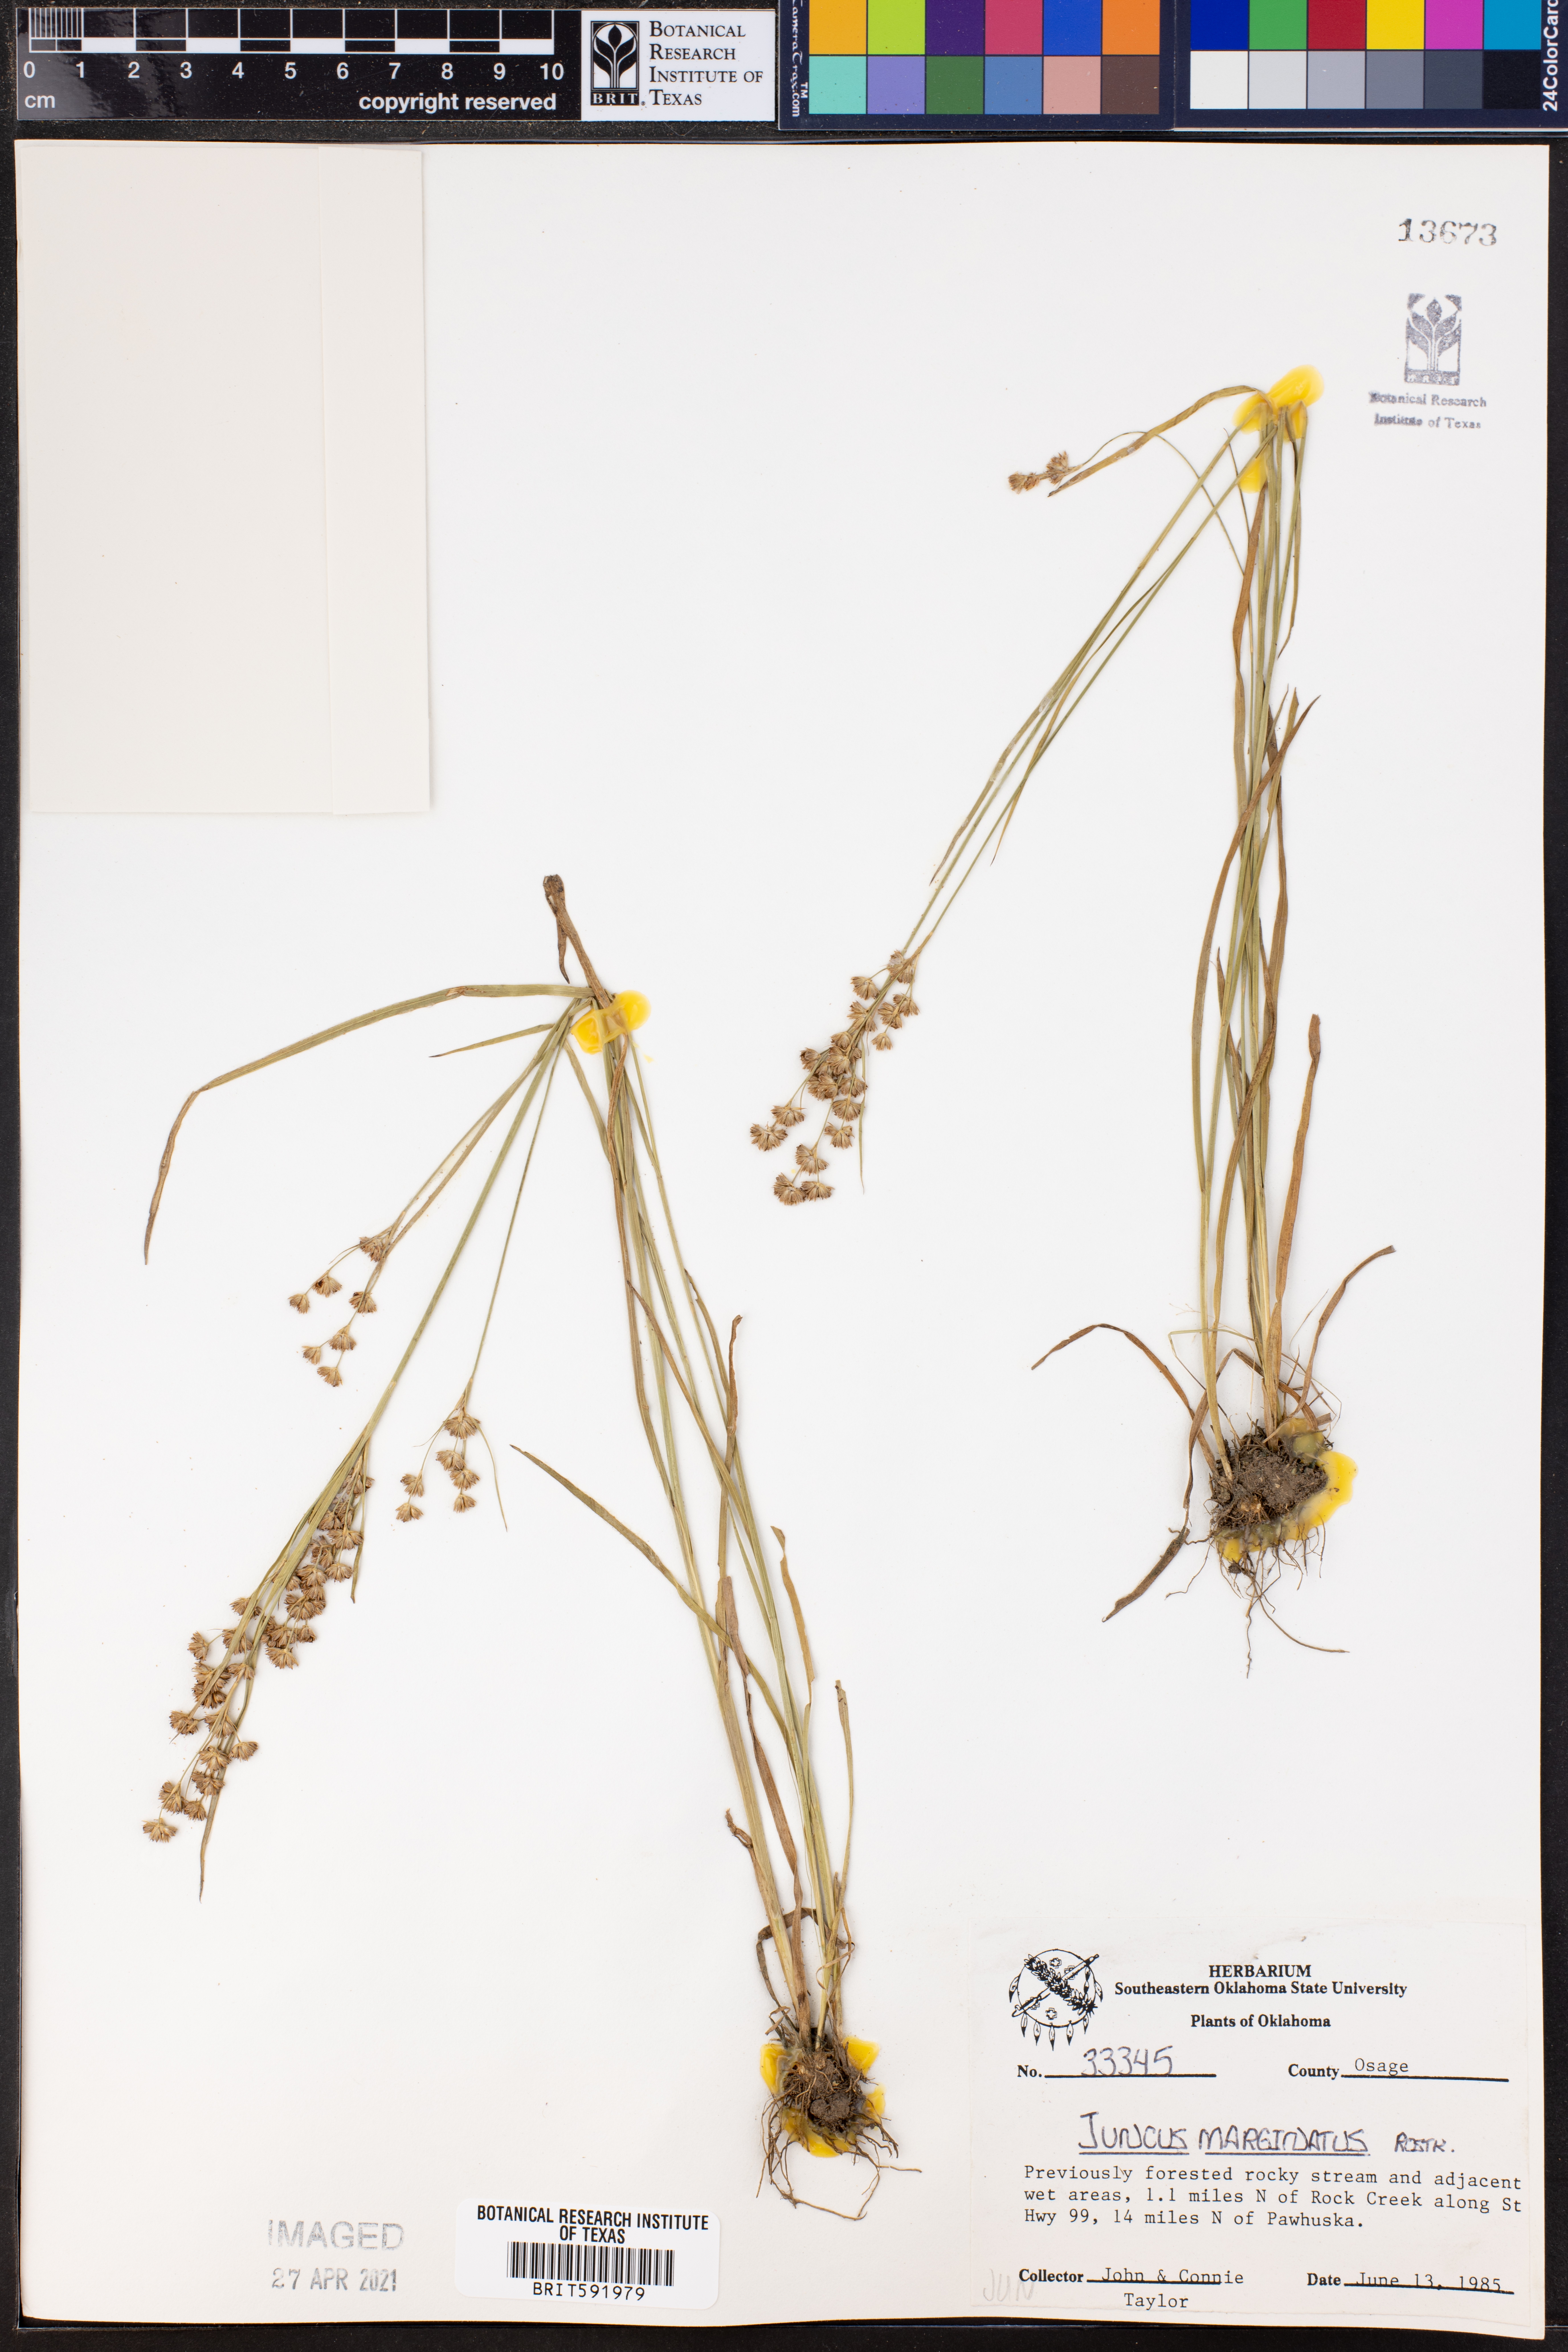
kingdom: Plantae
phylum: Tracheophyta
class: Liliopsida
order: Poales
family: Juncaceae
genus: Juncus
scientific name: Juncus marginatus
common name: Grass-leaf rush
